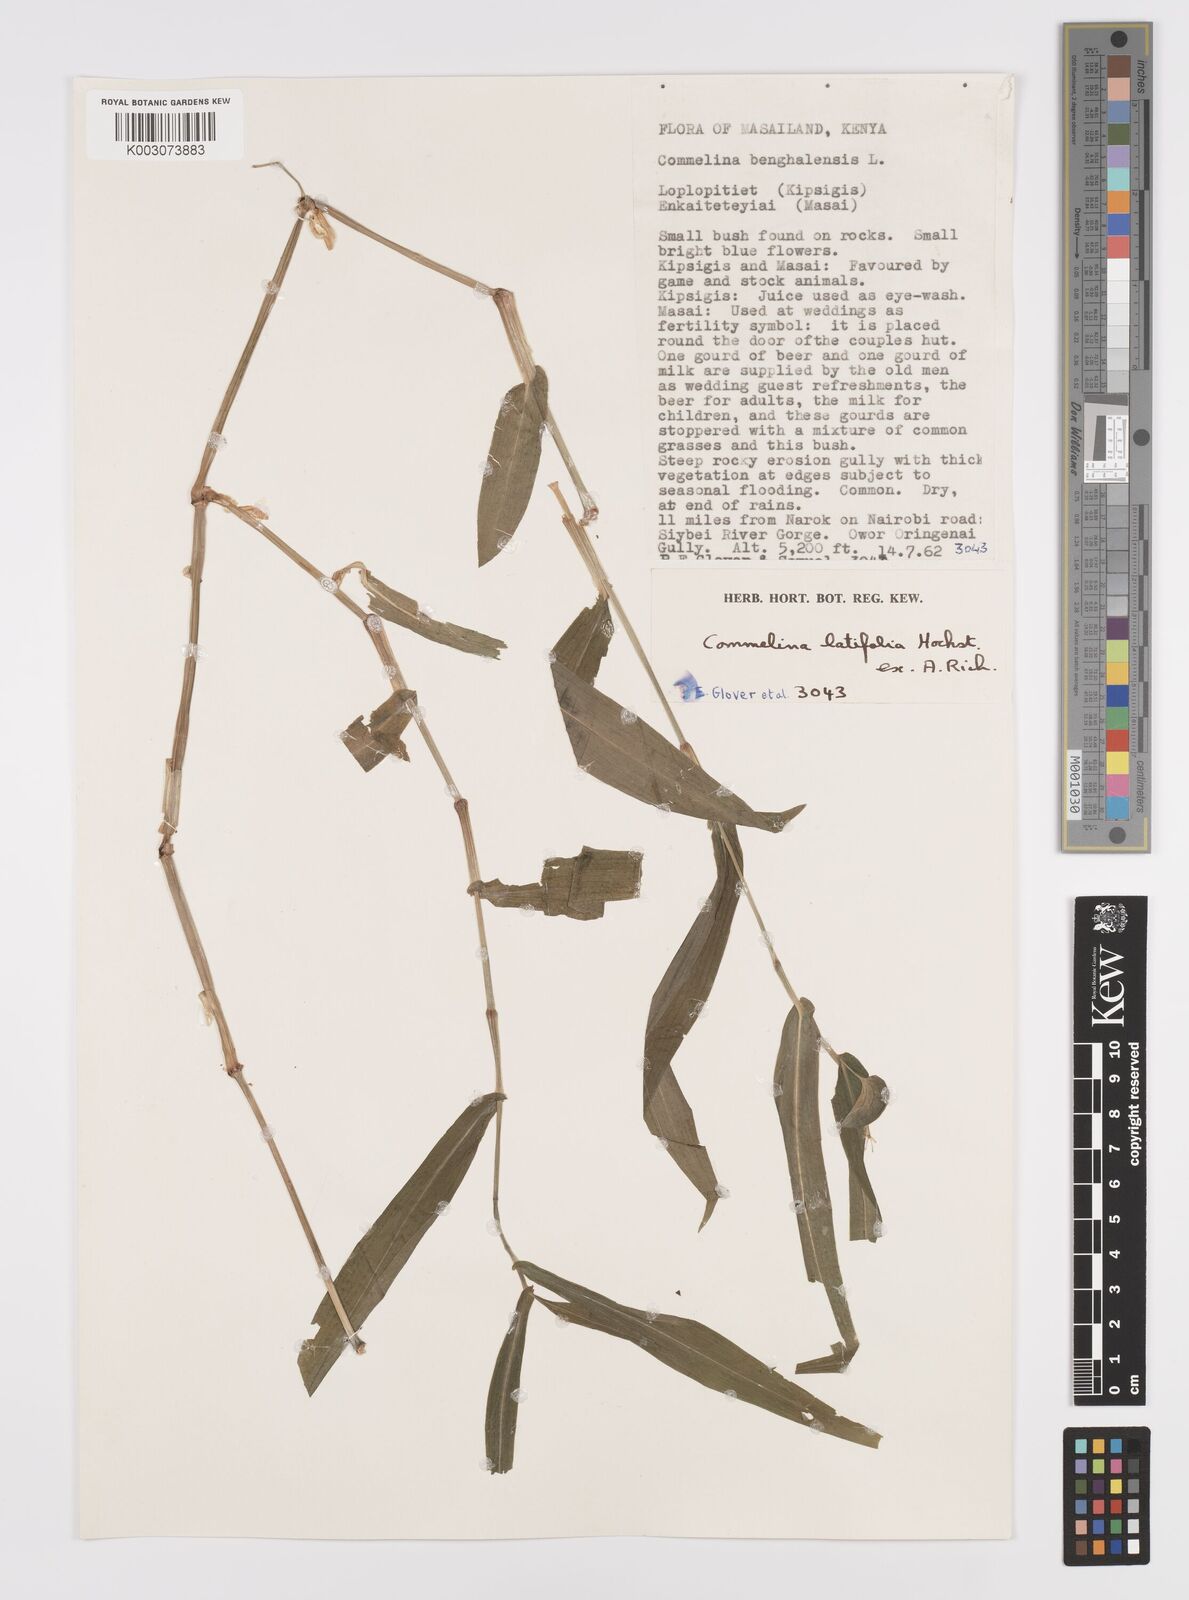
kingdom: Plantae
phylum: Tracheophyta
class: Liliopsida
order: Commelinales
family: Commelinaceae
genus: Commelina
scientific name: Commelina latifolia
